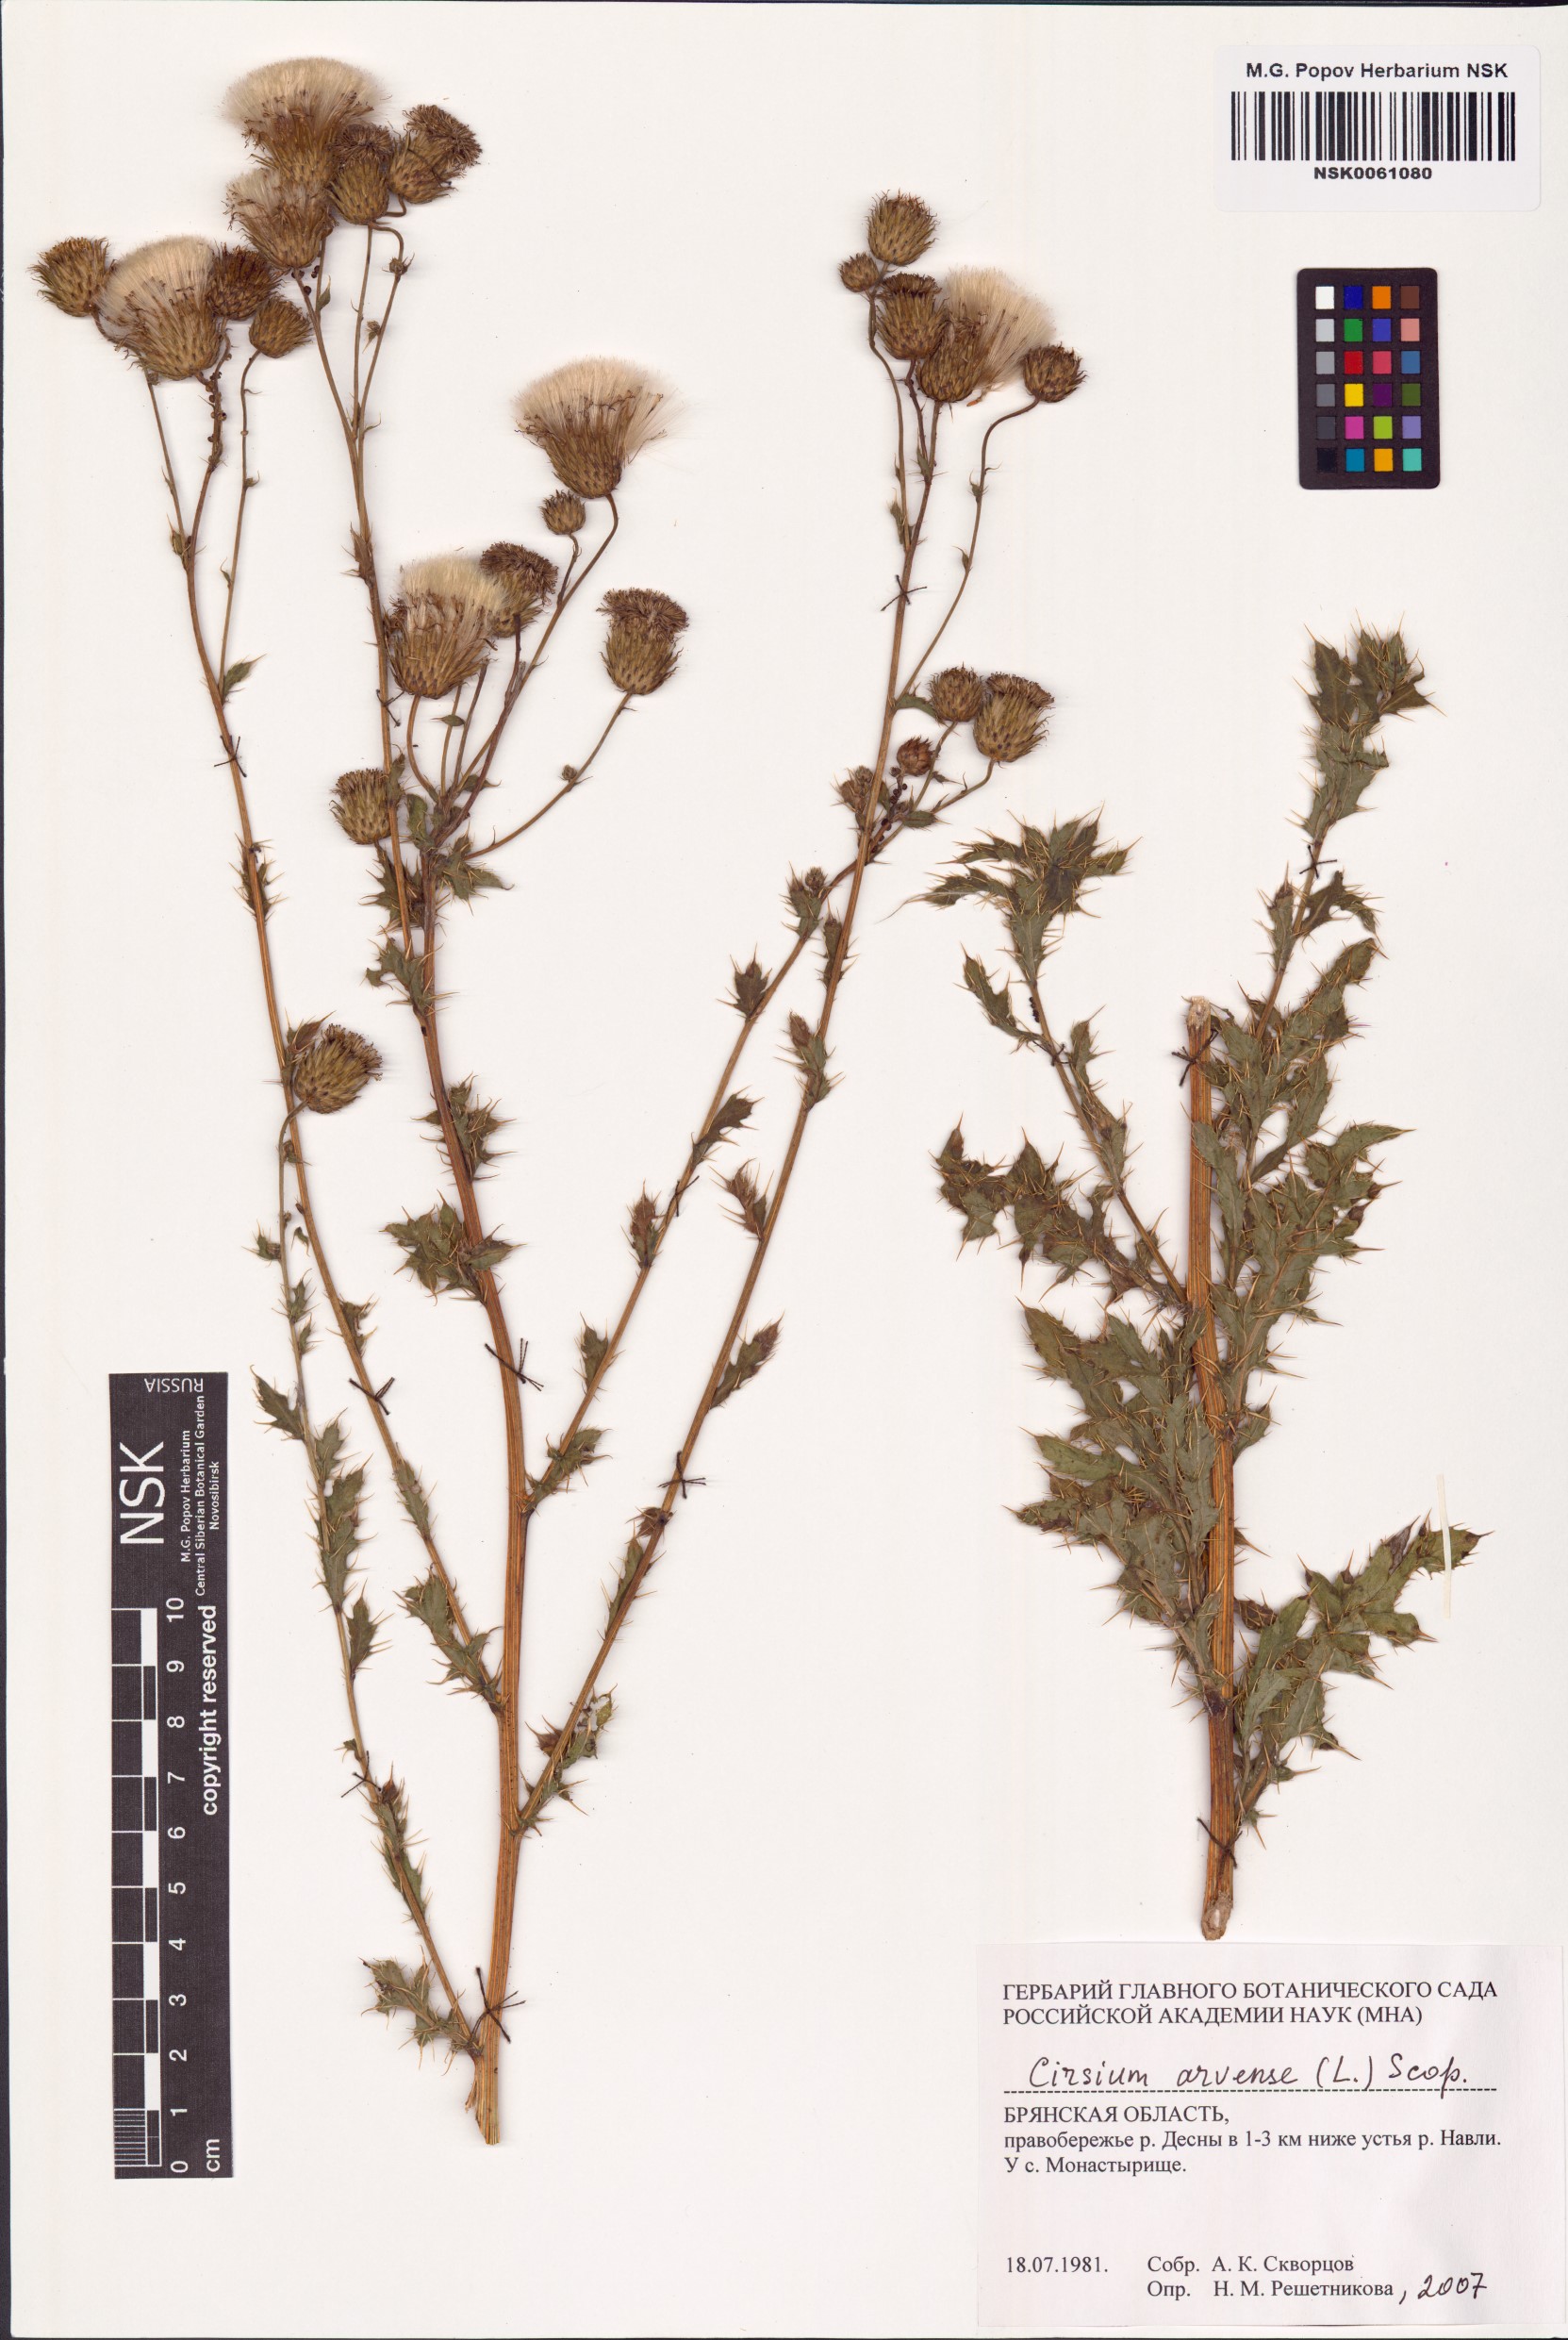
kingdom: Plantae
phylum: Tracheophyta
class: Magnoliopsida
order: Asterales
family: Asteraceae
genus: Cirsium
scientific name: Cirsium arvense
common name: Creeping thistle
